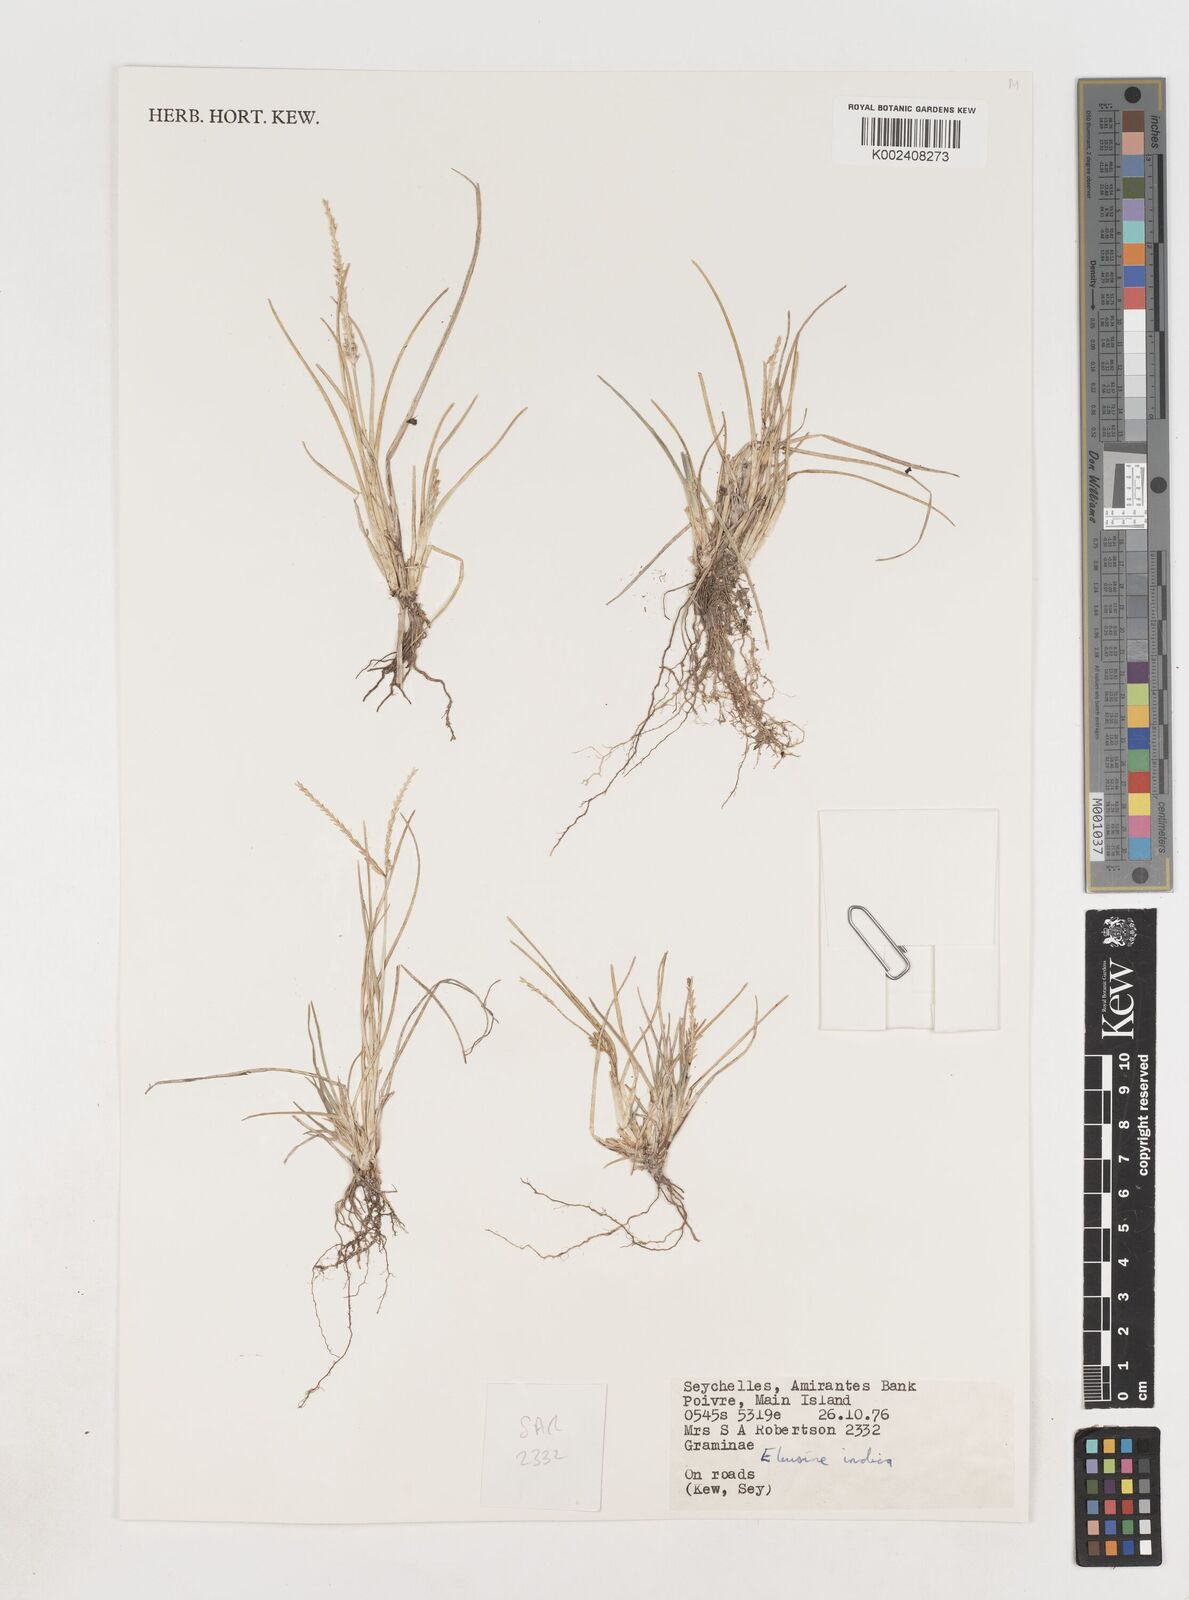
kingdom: Plantae
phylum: Tracheophyta
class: Liliopsida
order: Poales
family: Poaceae
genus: Eleusine
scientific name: Eleusine indica
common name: Yard-grass
